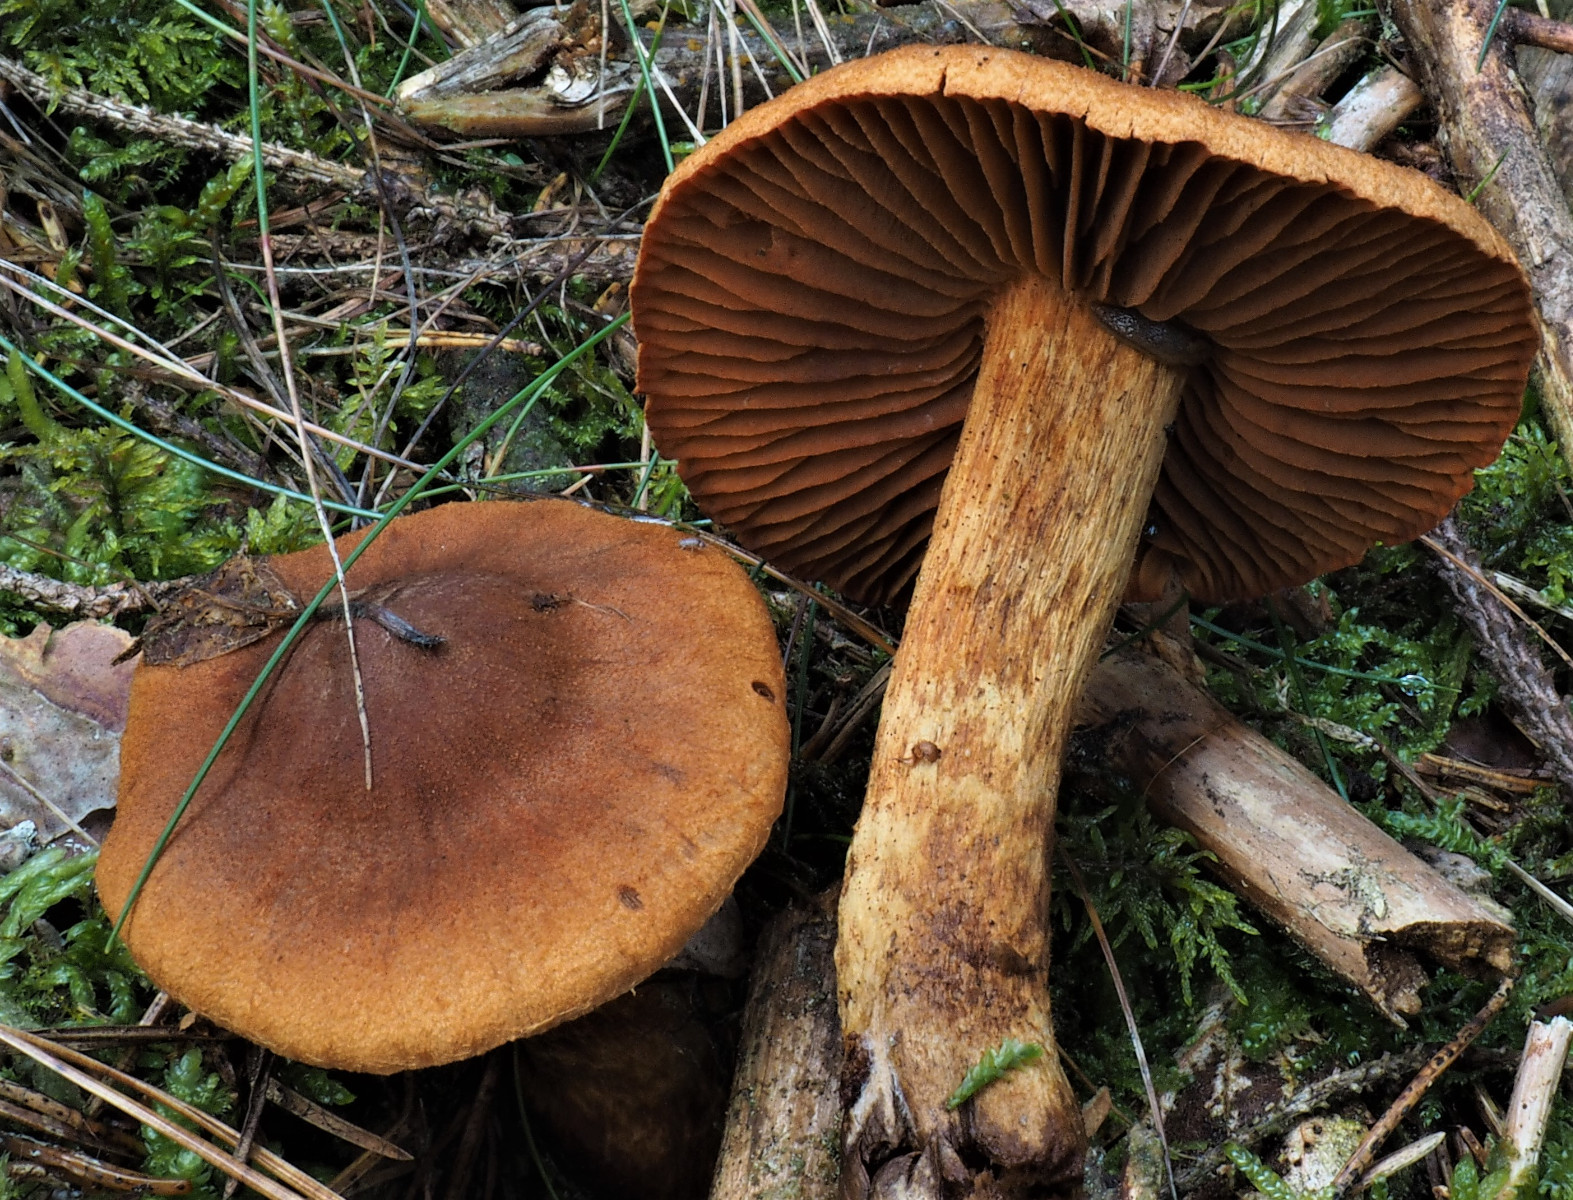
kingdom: Fungi
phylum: Basidiomycota
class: Agaricomycetes
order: Agaricales
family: Cortinariaceae
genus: Cortinarius
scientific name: Cortinarius rubellus
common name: puklet gift-slørhat
